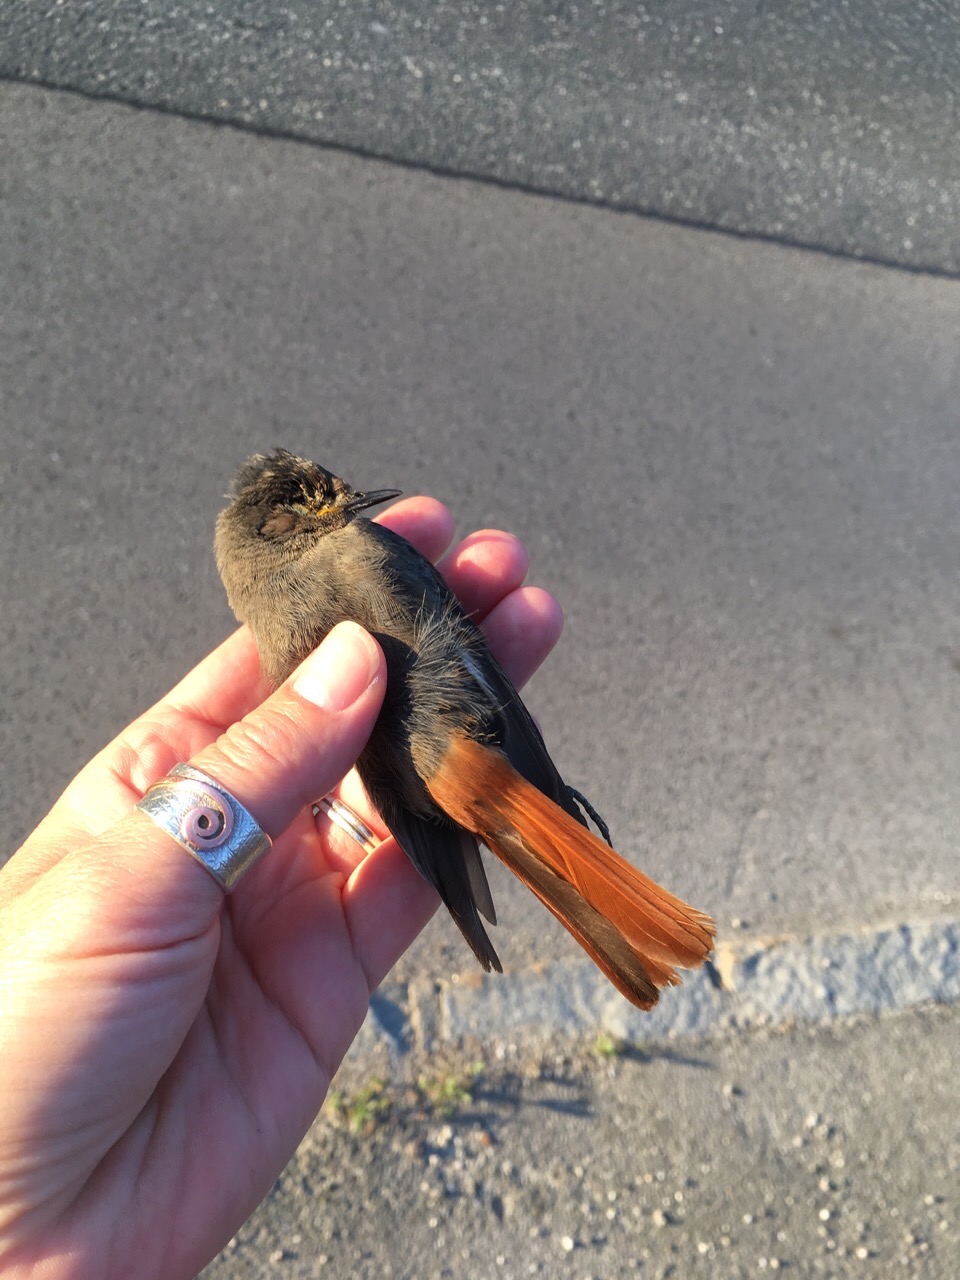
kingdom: Animalia
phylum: Chordata
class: Aves
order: Passeriformes
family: Muscicapidae
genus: Phoenicurus
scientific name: Phoenicurus ochruros
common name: Black redstart
